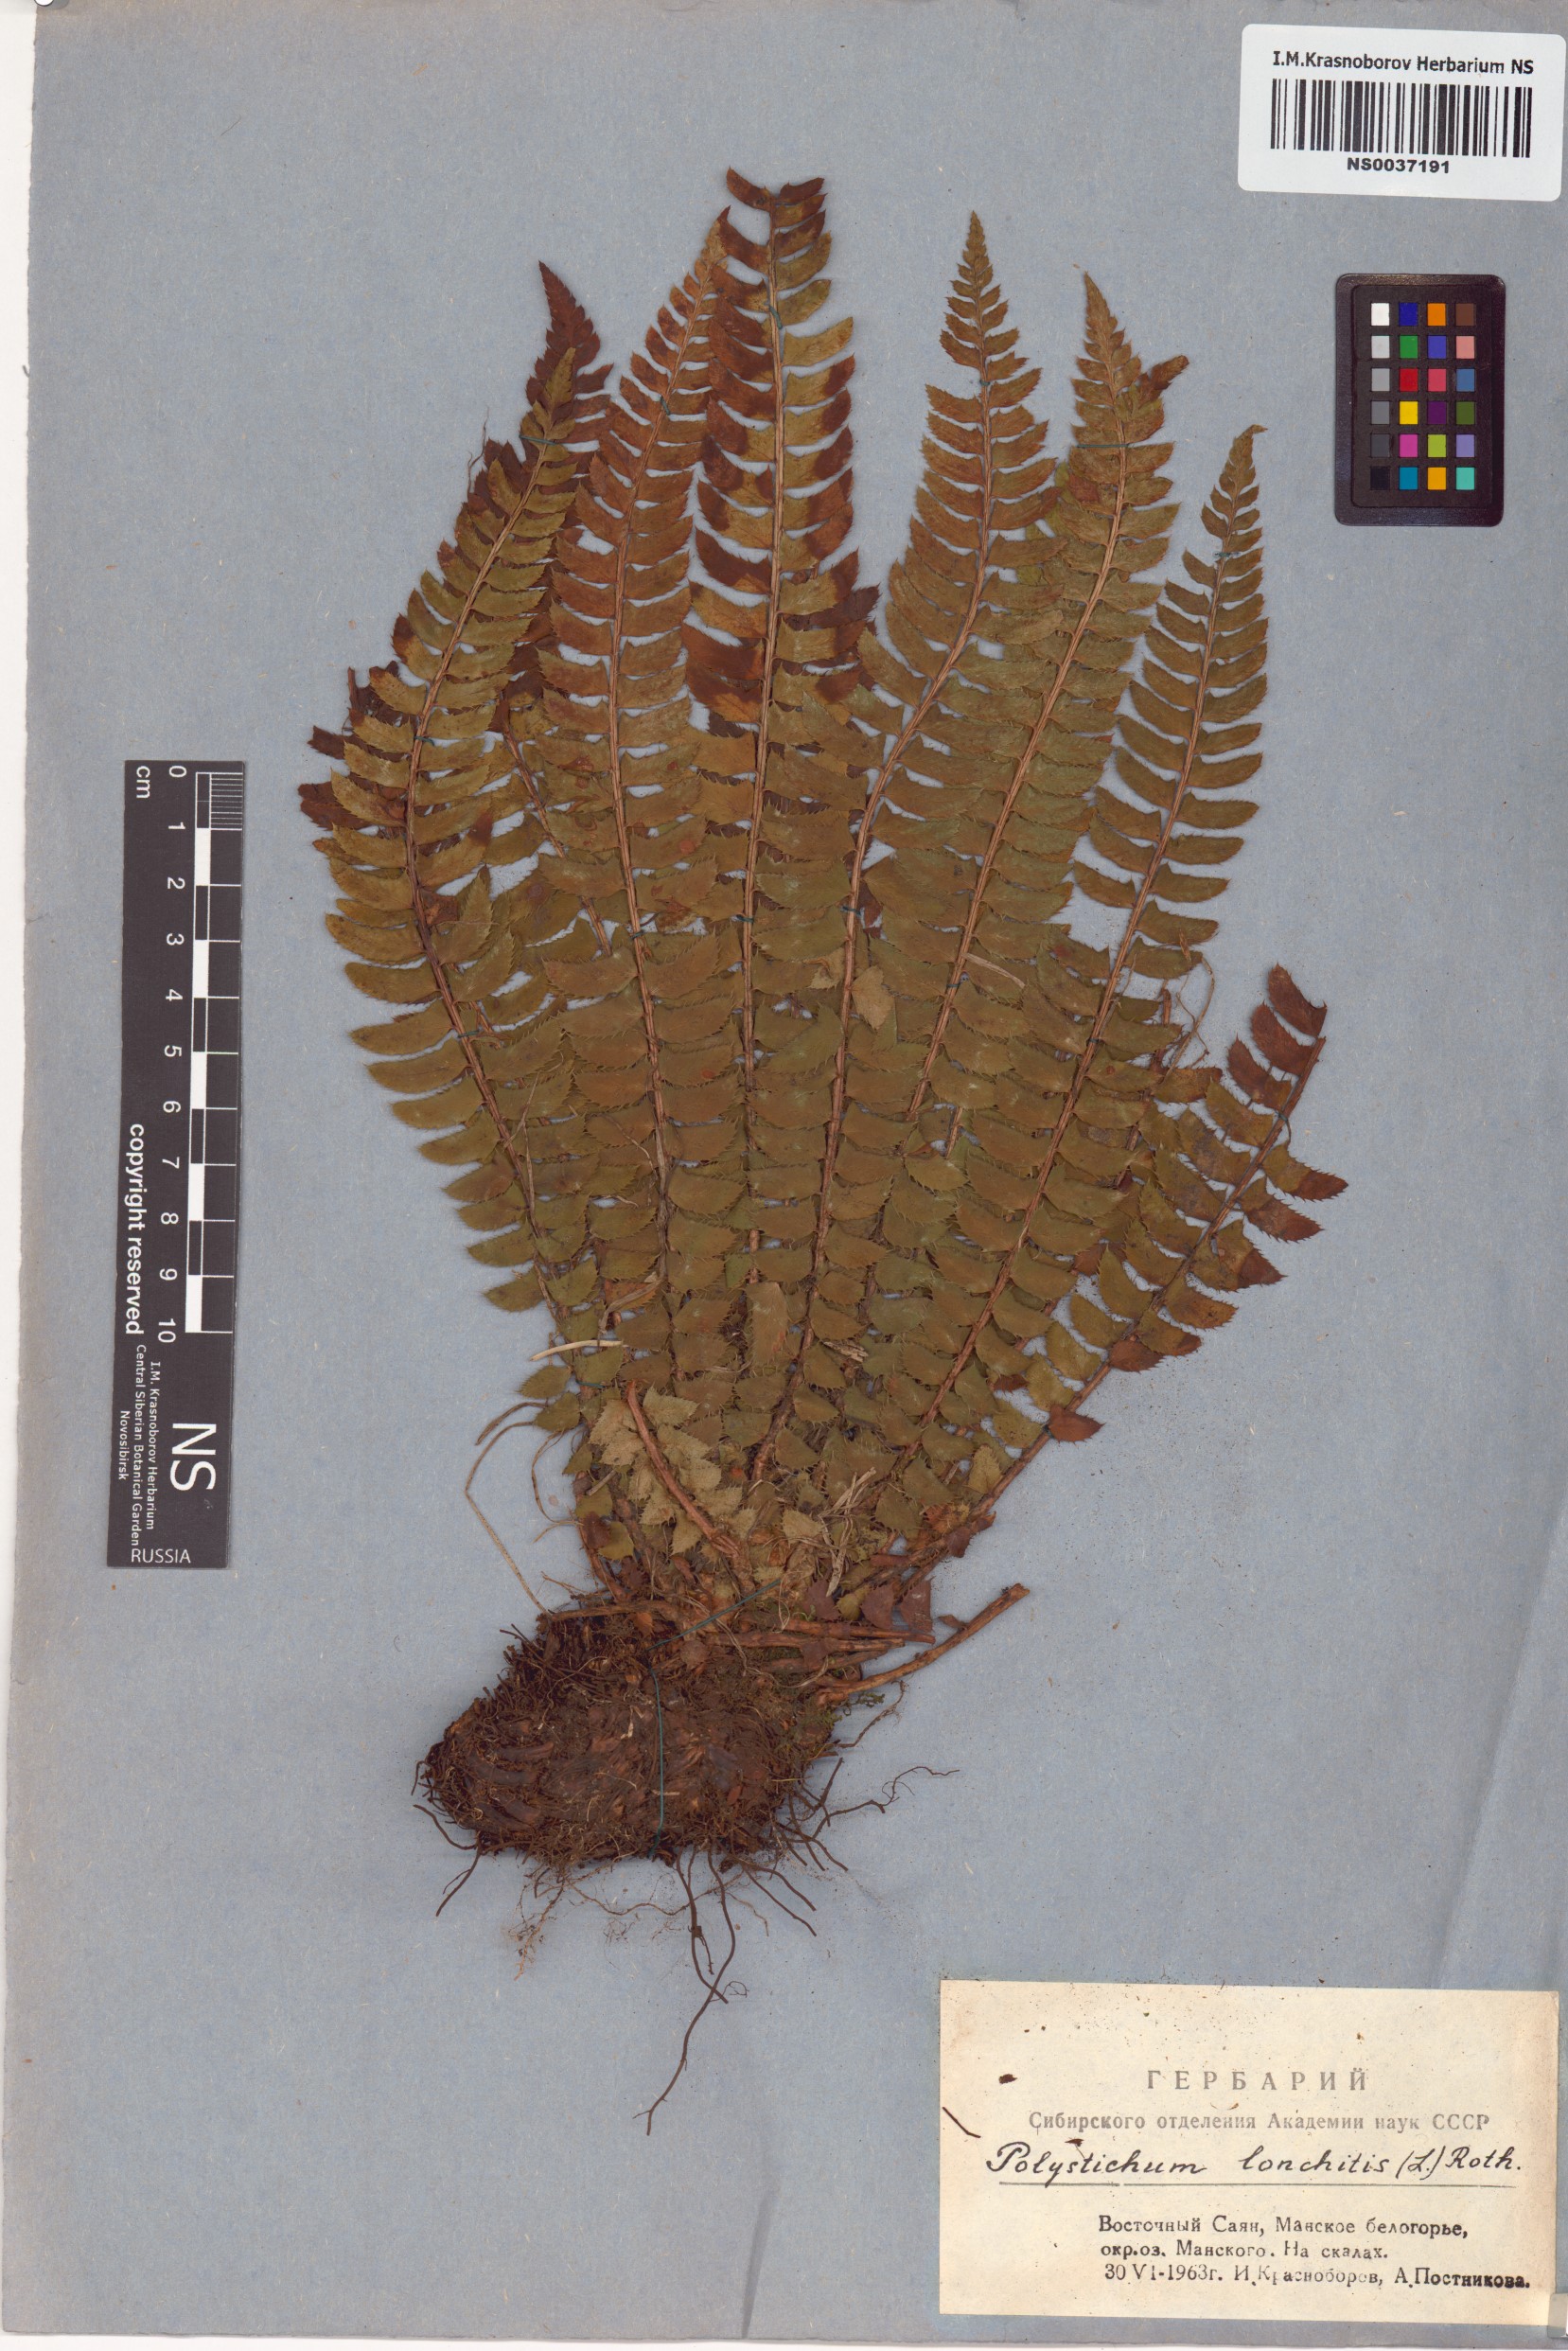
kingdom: Plantae
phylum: Tracheophyta
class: Polypodiopsida
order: Polypodiales
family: Dryopteridaceae
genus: Polystichum
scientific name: Polystichum lonchitis
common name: Holly fern
